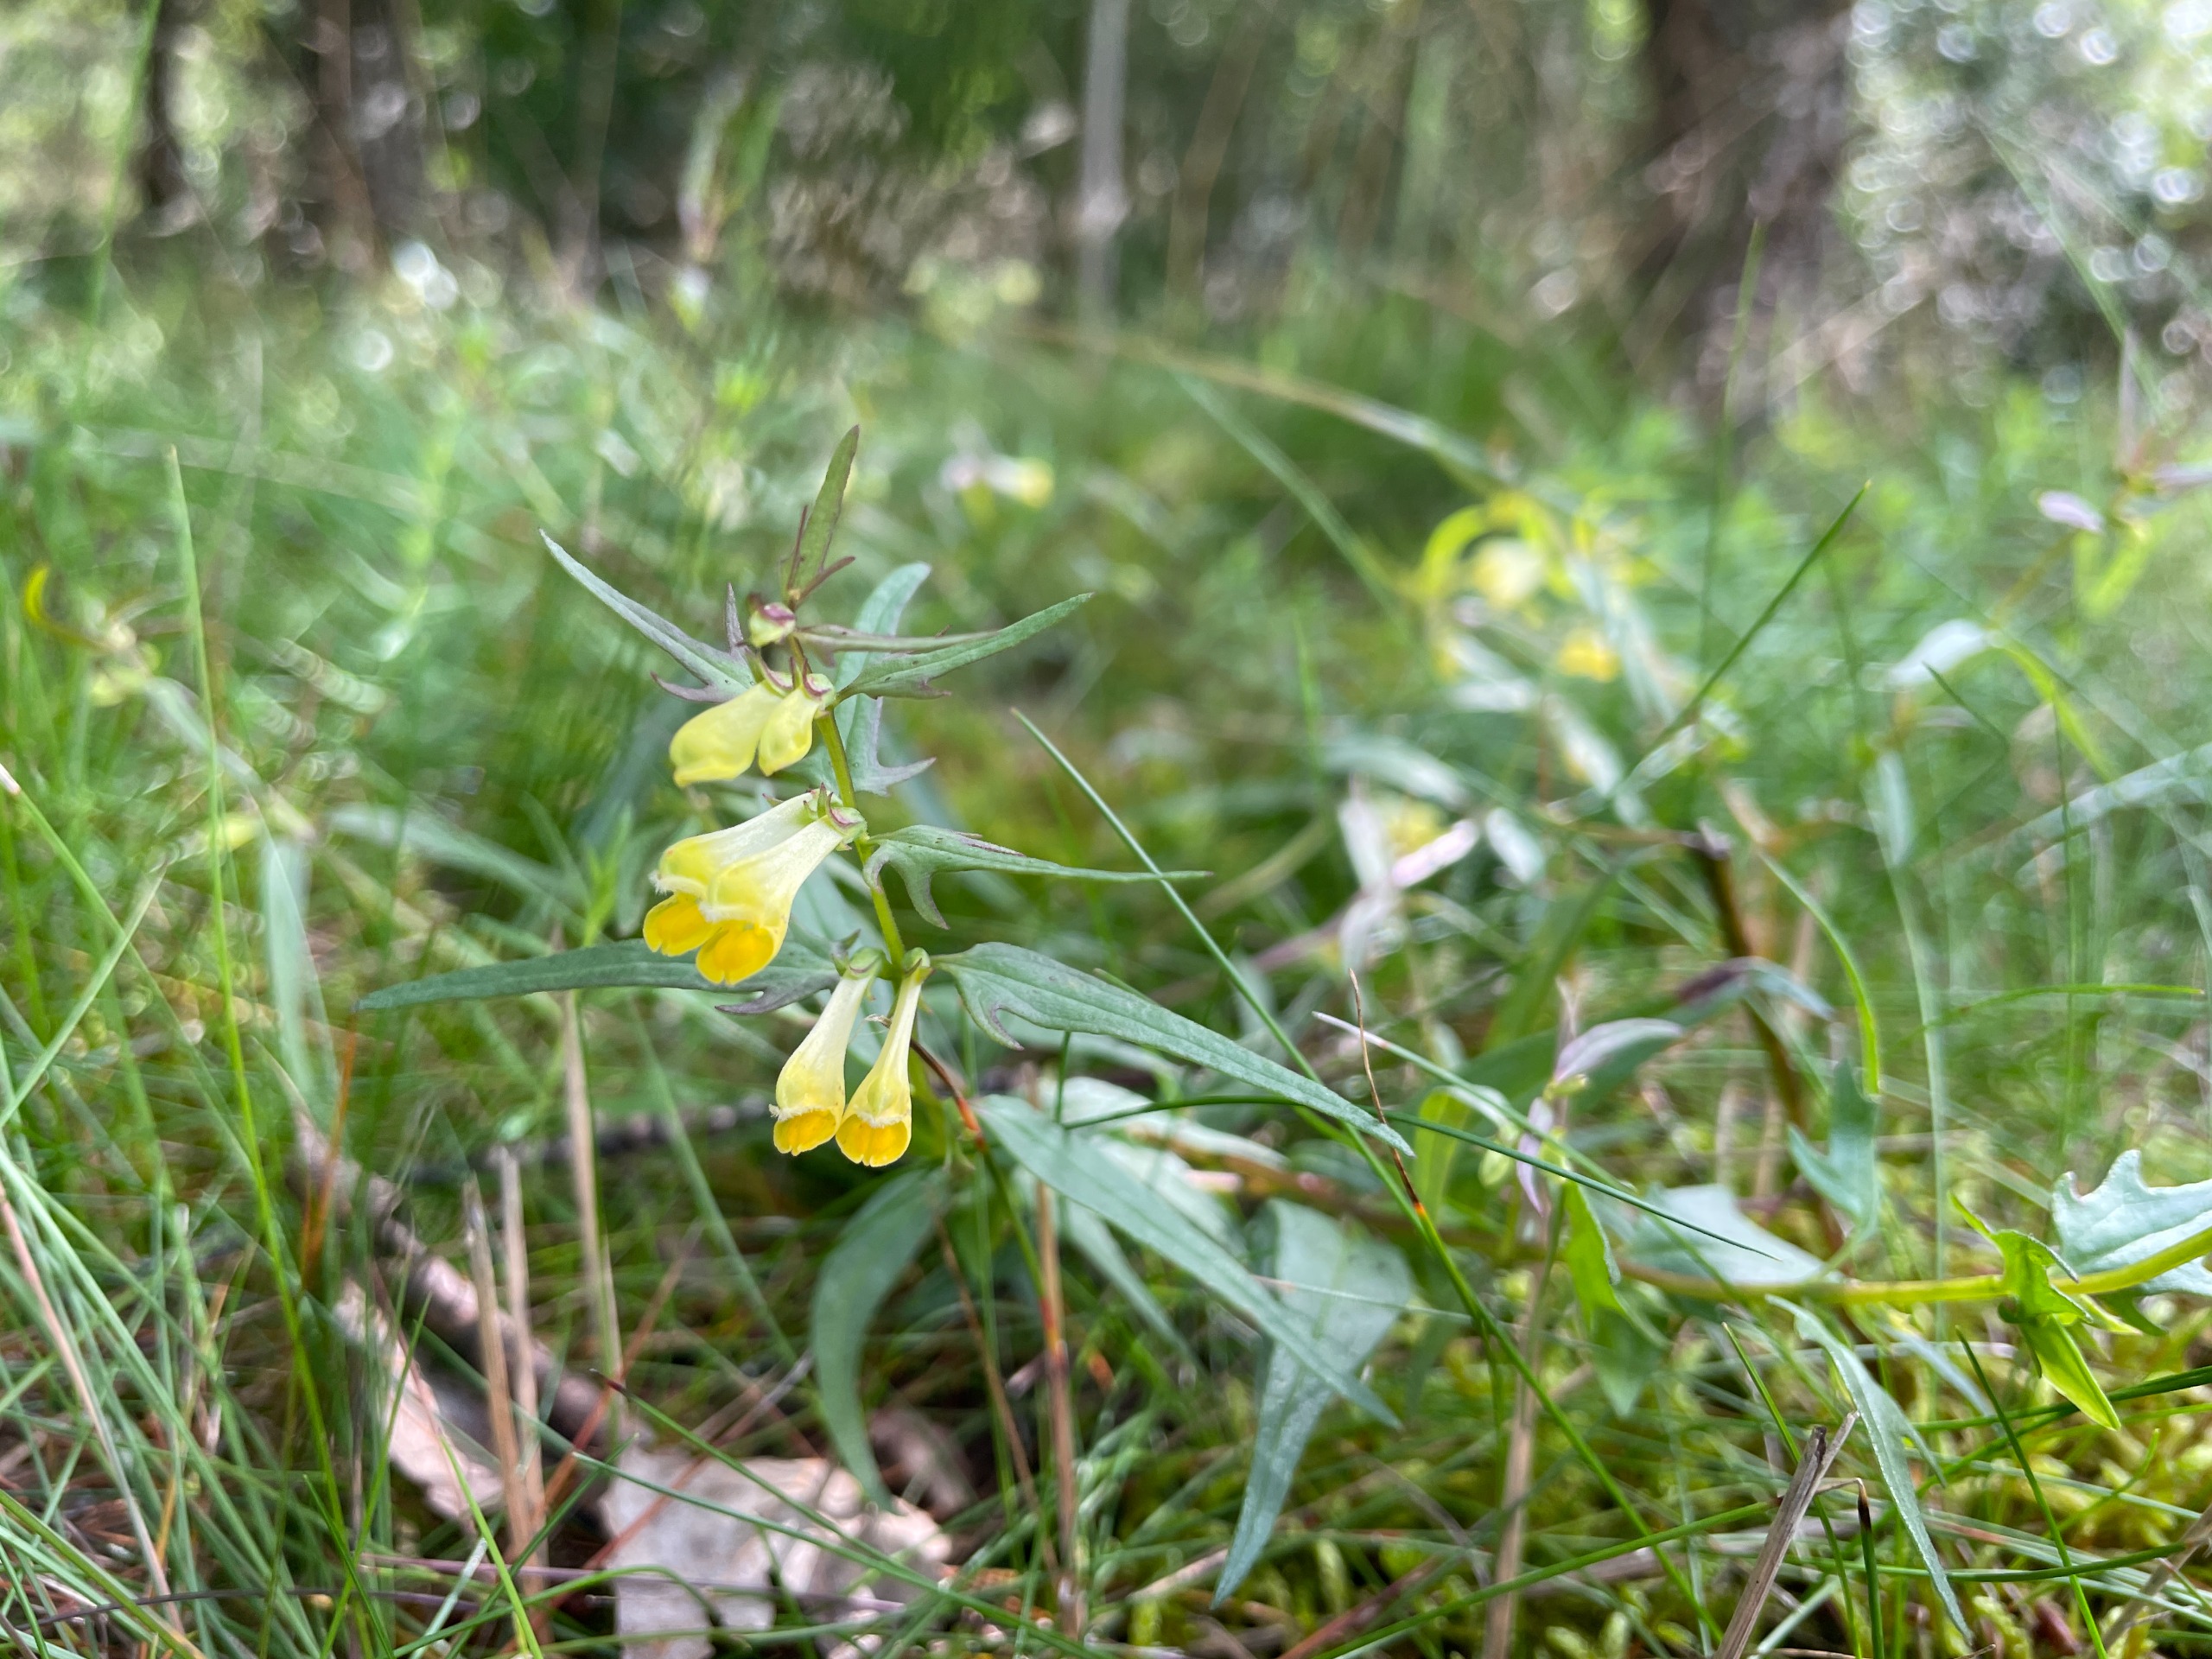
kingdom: Plantae
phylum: Tracheophyta
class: Magnoliopsida
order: Lamiales
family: Orobanchaceae
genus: Melampyrum
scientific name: Melampyrum pratense
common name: Almindelig kohvede
